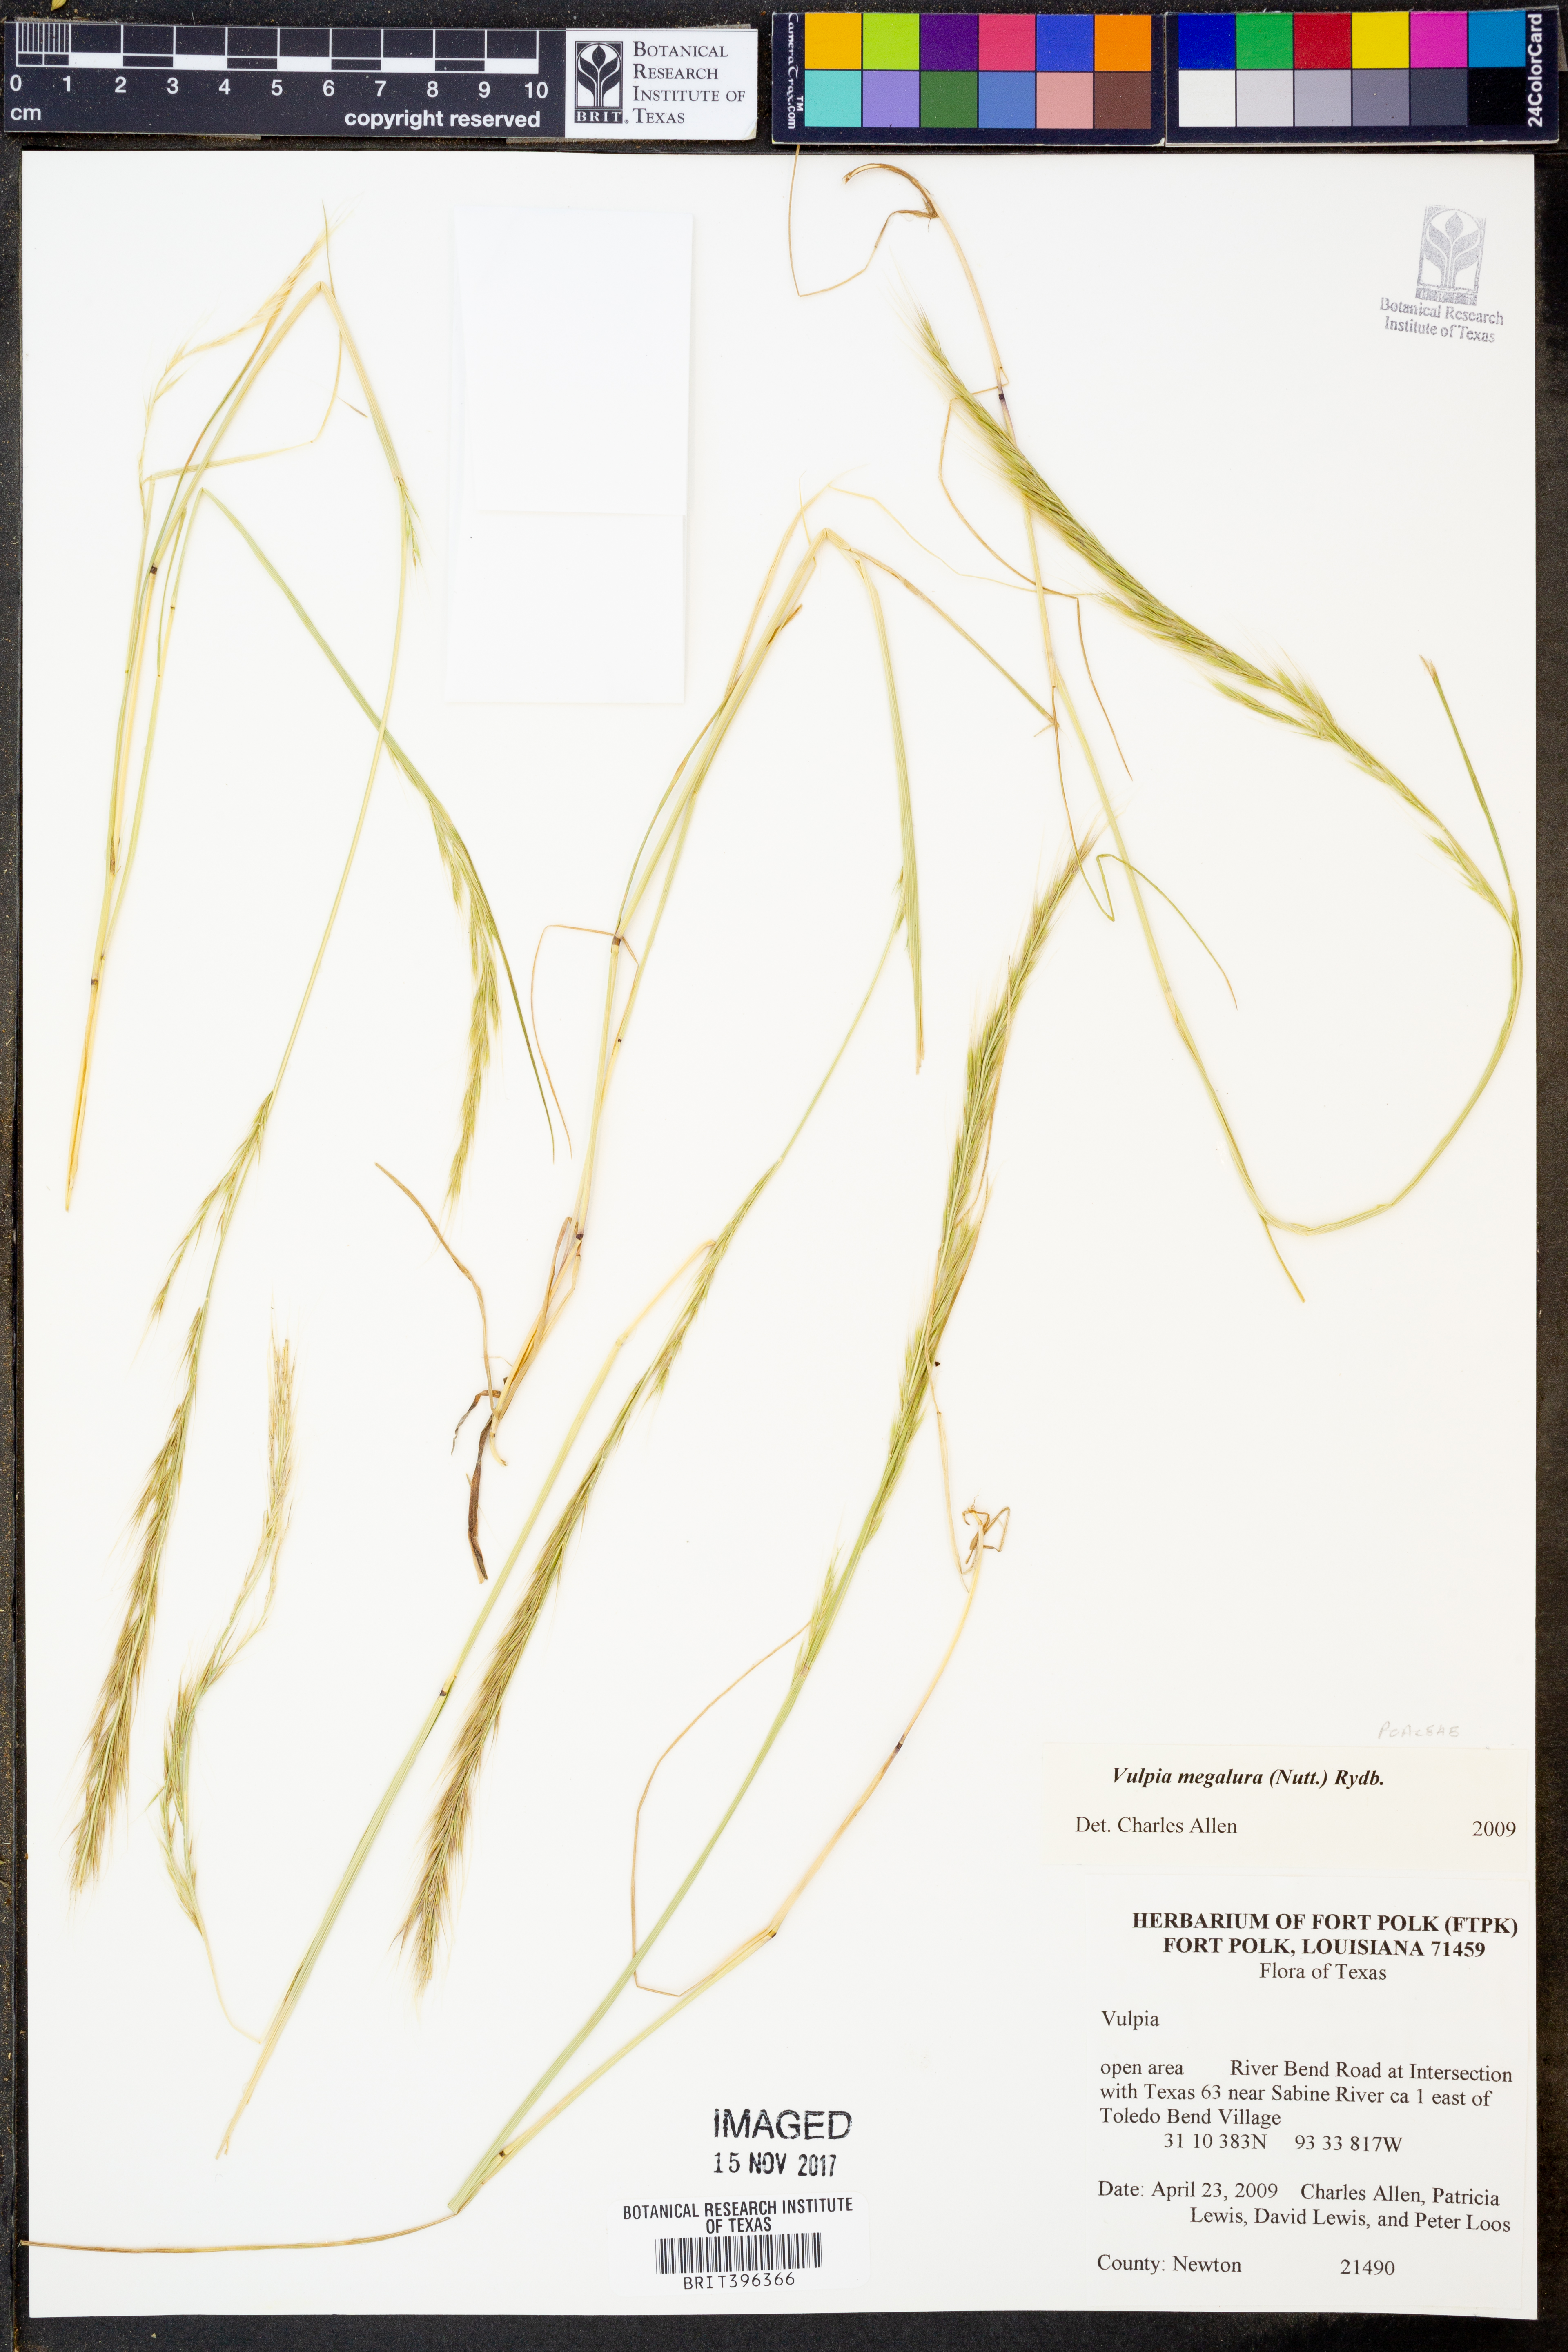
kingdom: Plantae
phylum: Tracheophyta
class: Liliopsida
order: Poales
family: Poaceae
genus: Festuca
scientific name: Festuca myuros
